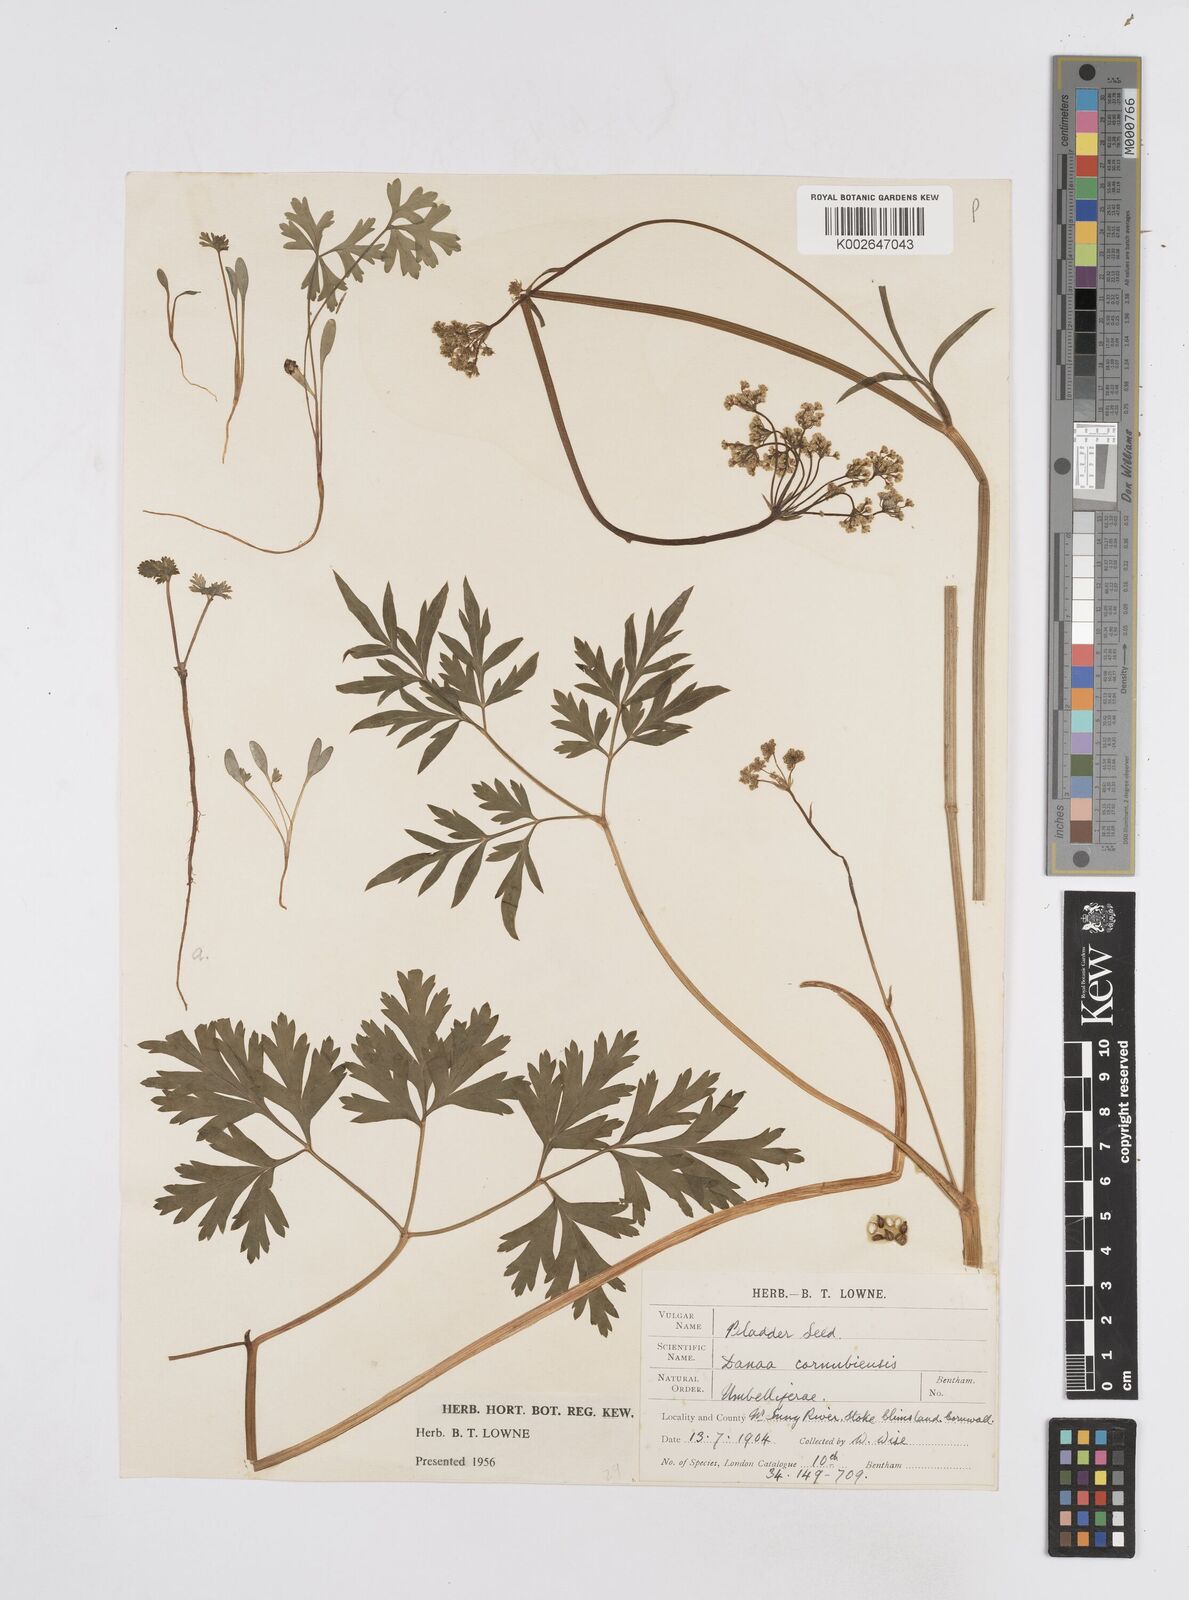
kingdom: Plantae
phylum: Tracheophyta
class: Magnoliopsida
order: Apiales
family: Apiaceae
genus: Physospermum
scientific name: Physospermum cornubiense
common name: Bladderseed
